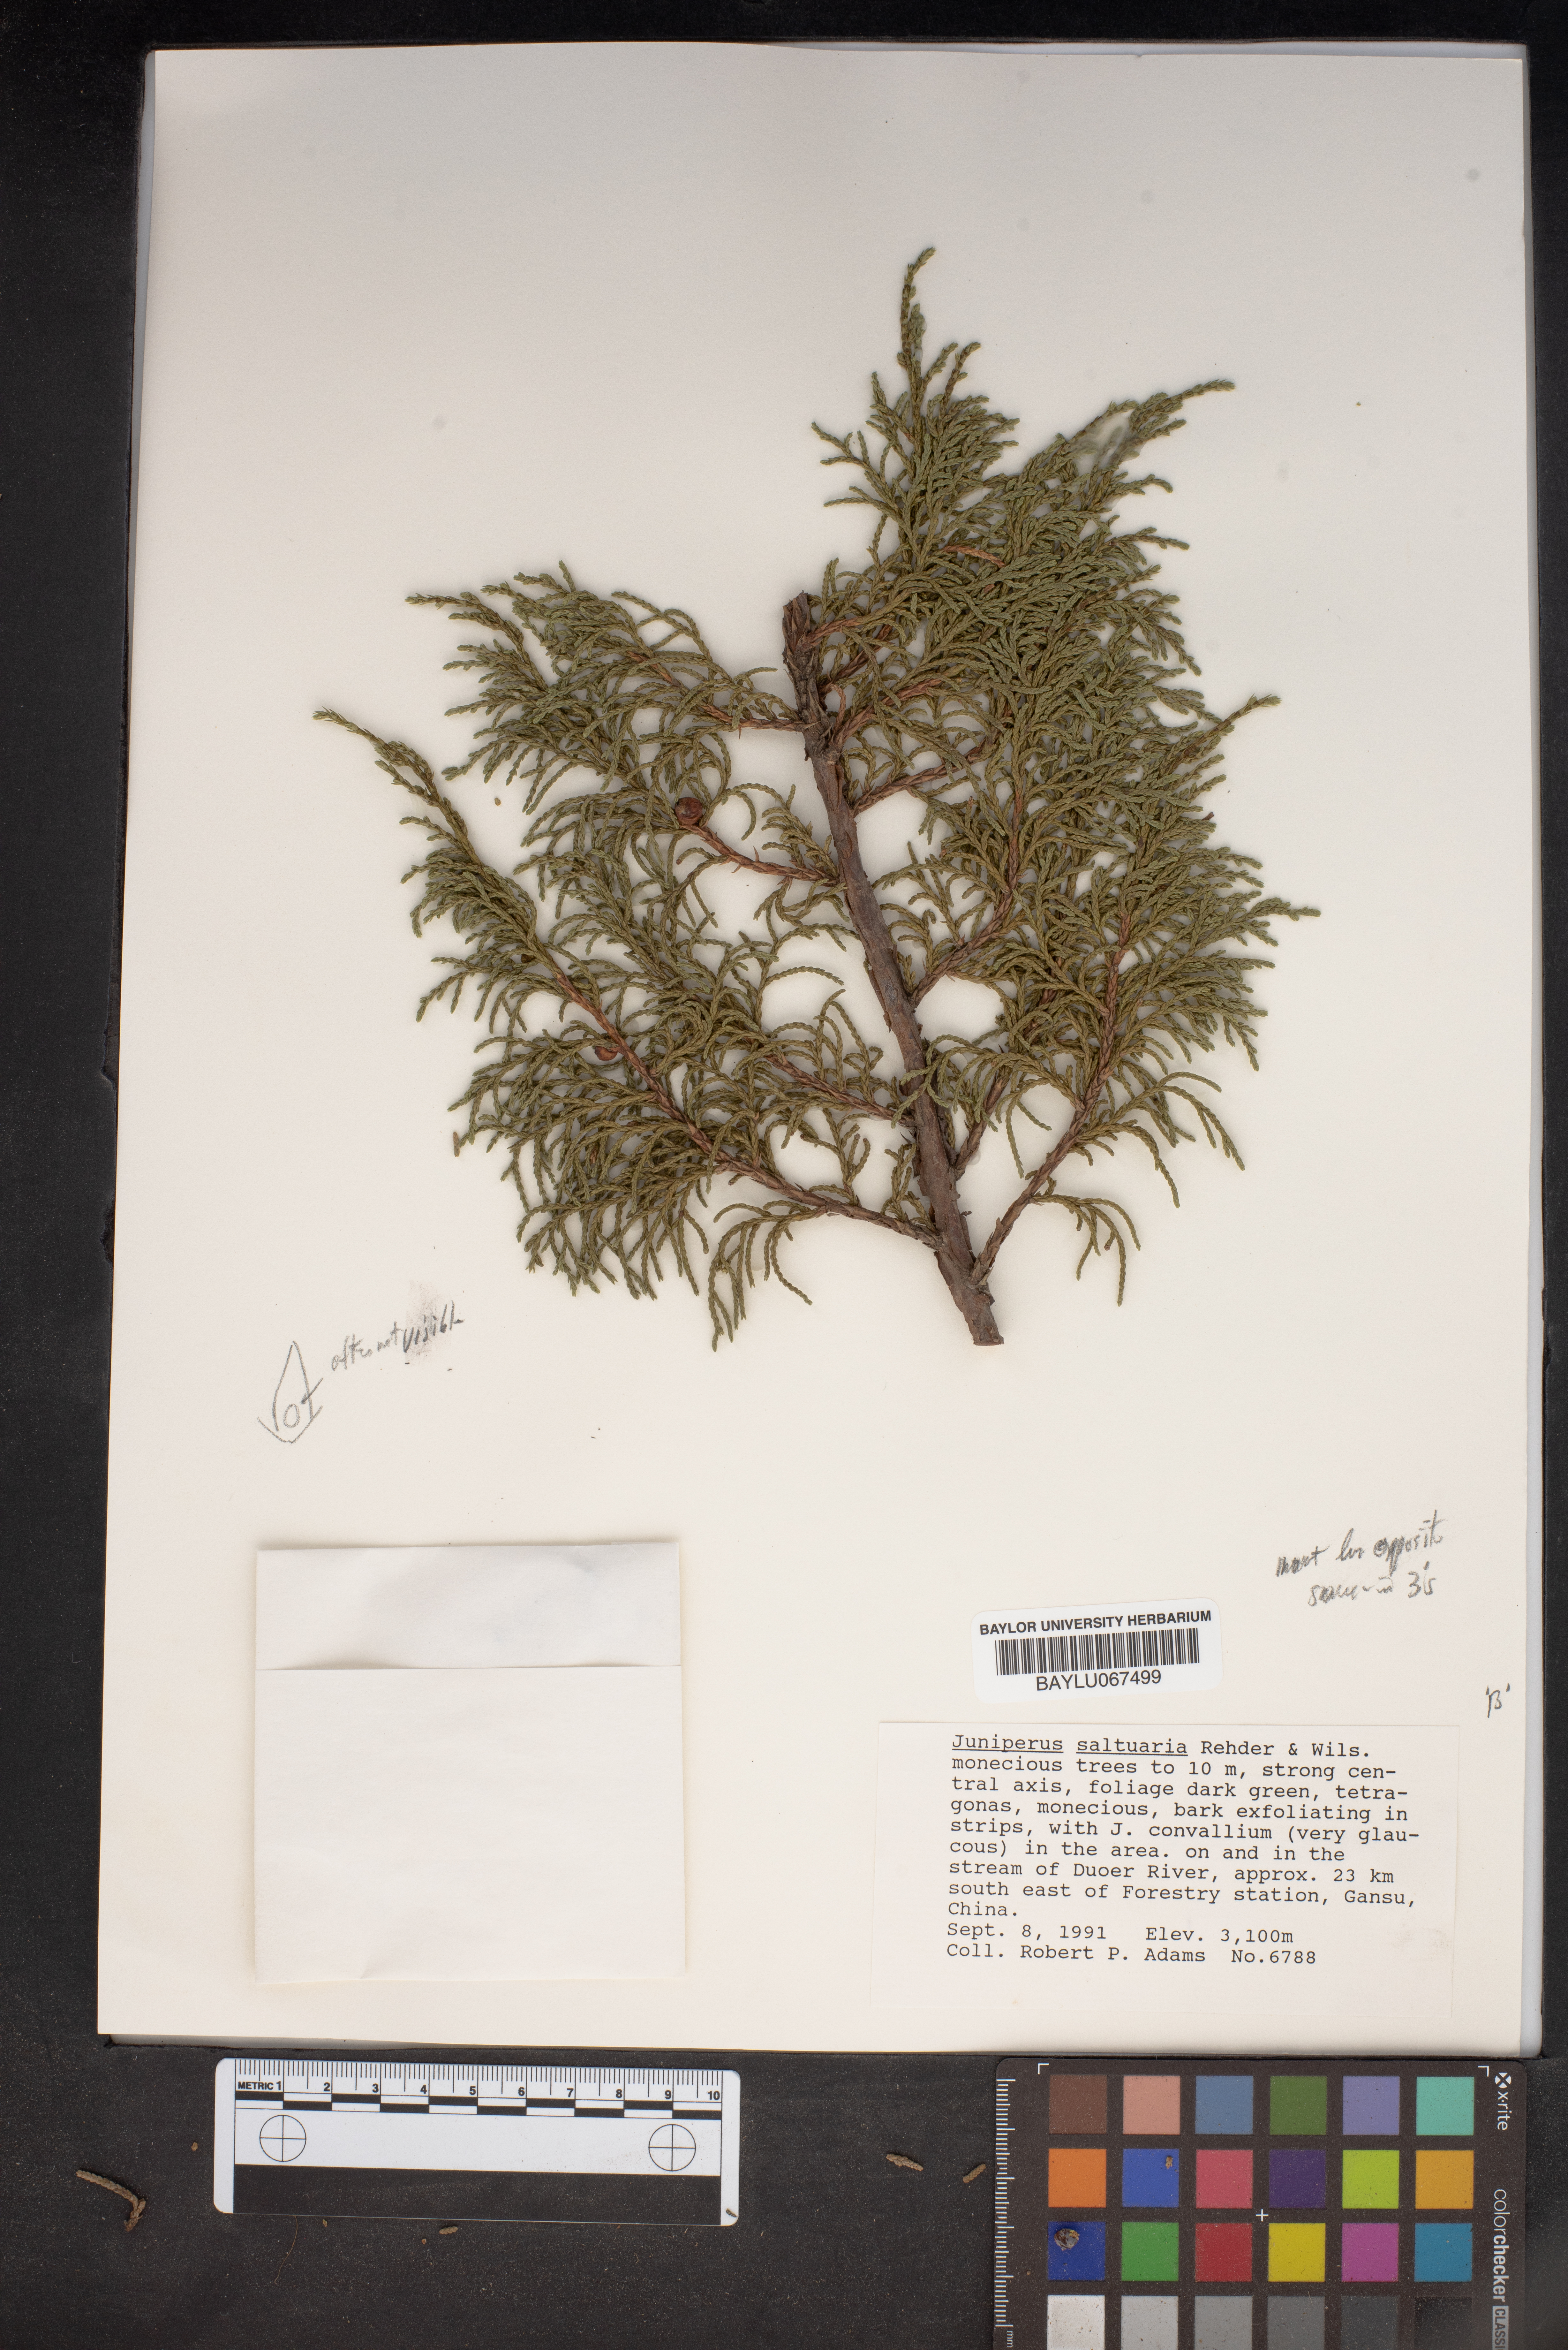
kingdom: Plantae
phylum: Tracheophyta
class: Pinopsida
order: Pinales
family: Cupressaceae
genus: Juniperus
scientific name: Juniperus saltuaria
